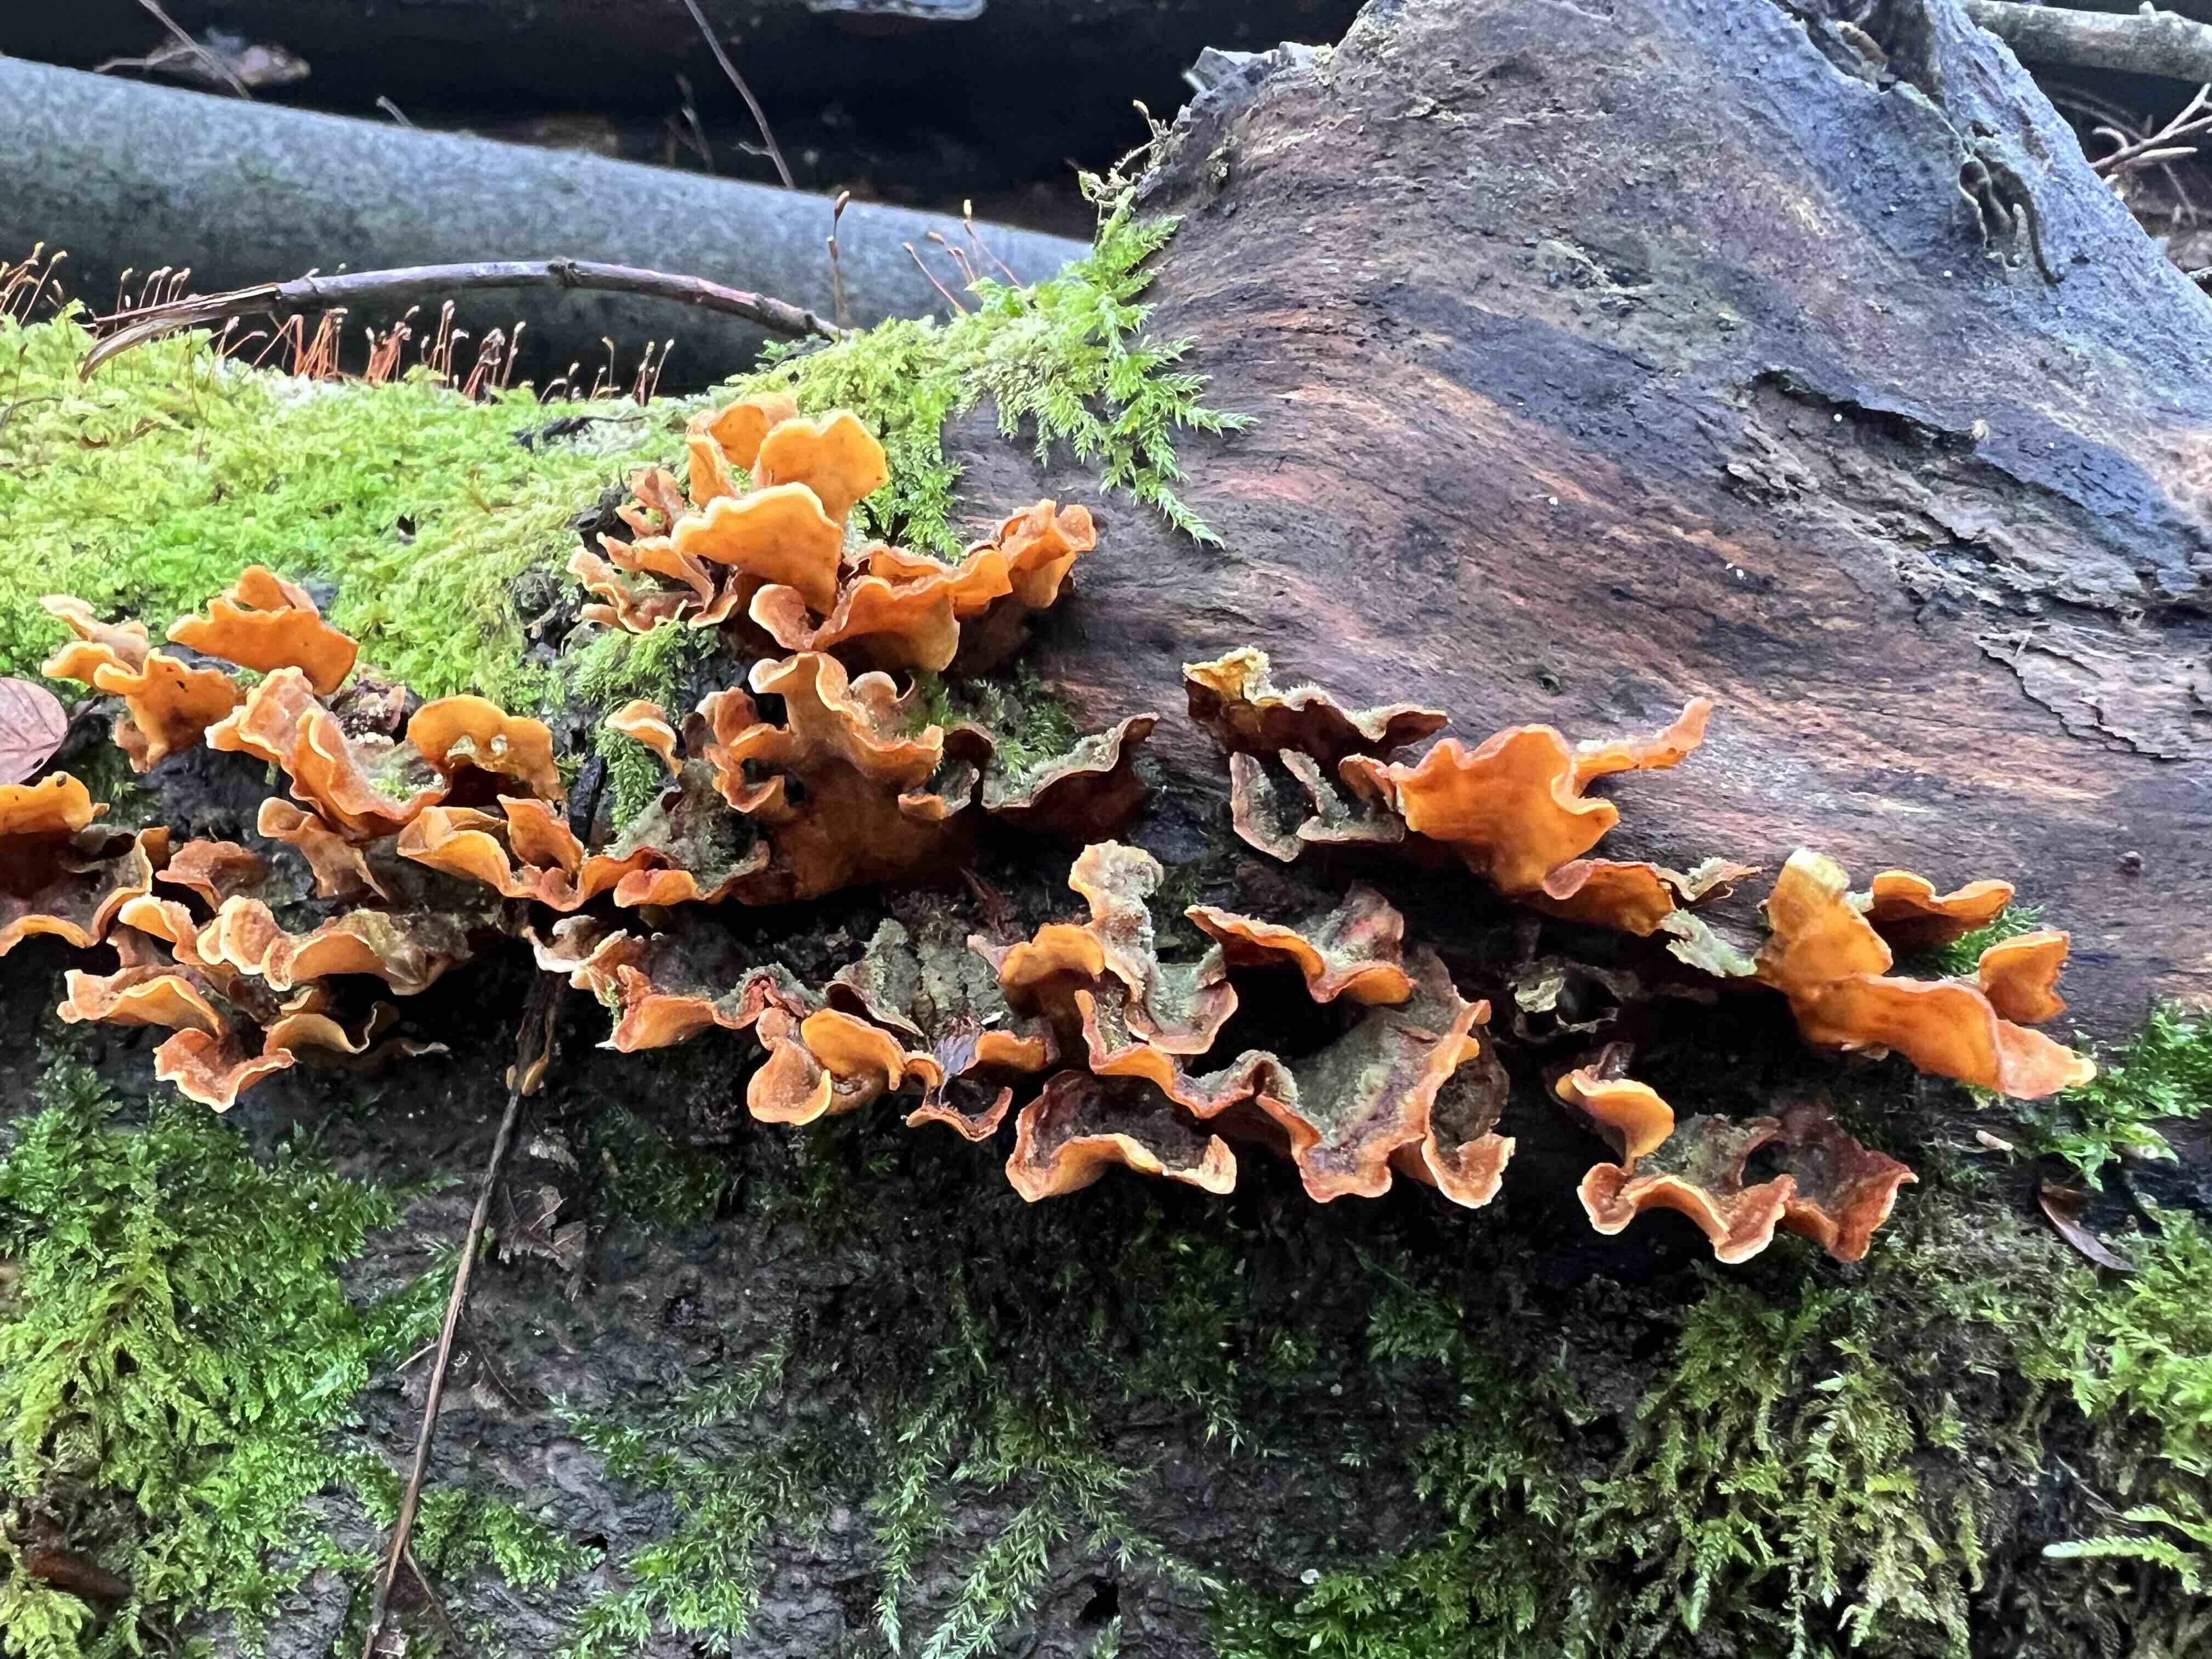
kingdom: Fungi
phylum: Basidiomycota
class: Agaricomycetes
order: Russulales
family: Stereaceae
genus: Stereum
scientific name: Stereum hirsutum
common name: håret lædersvamp
